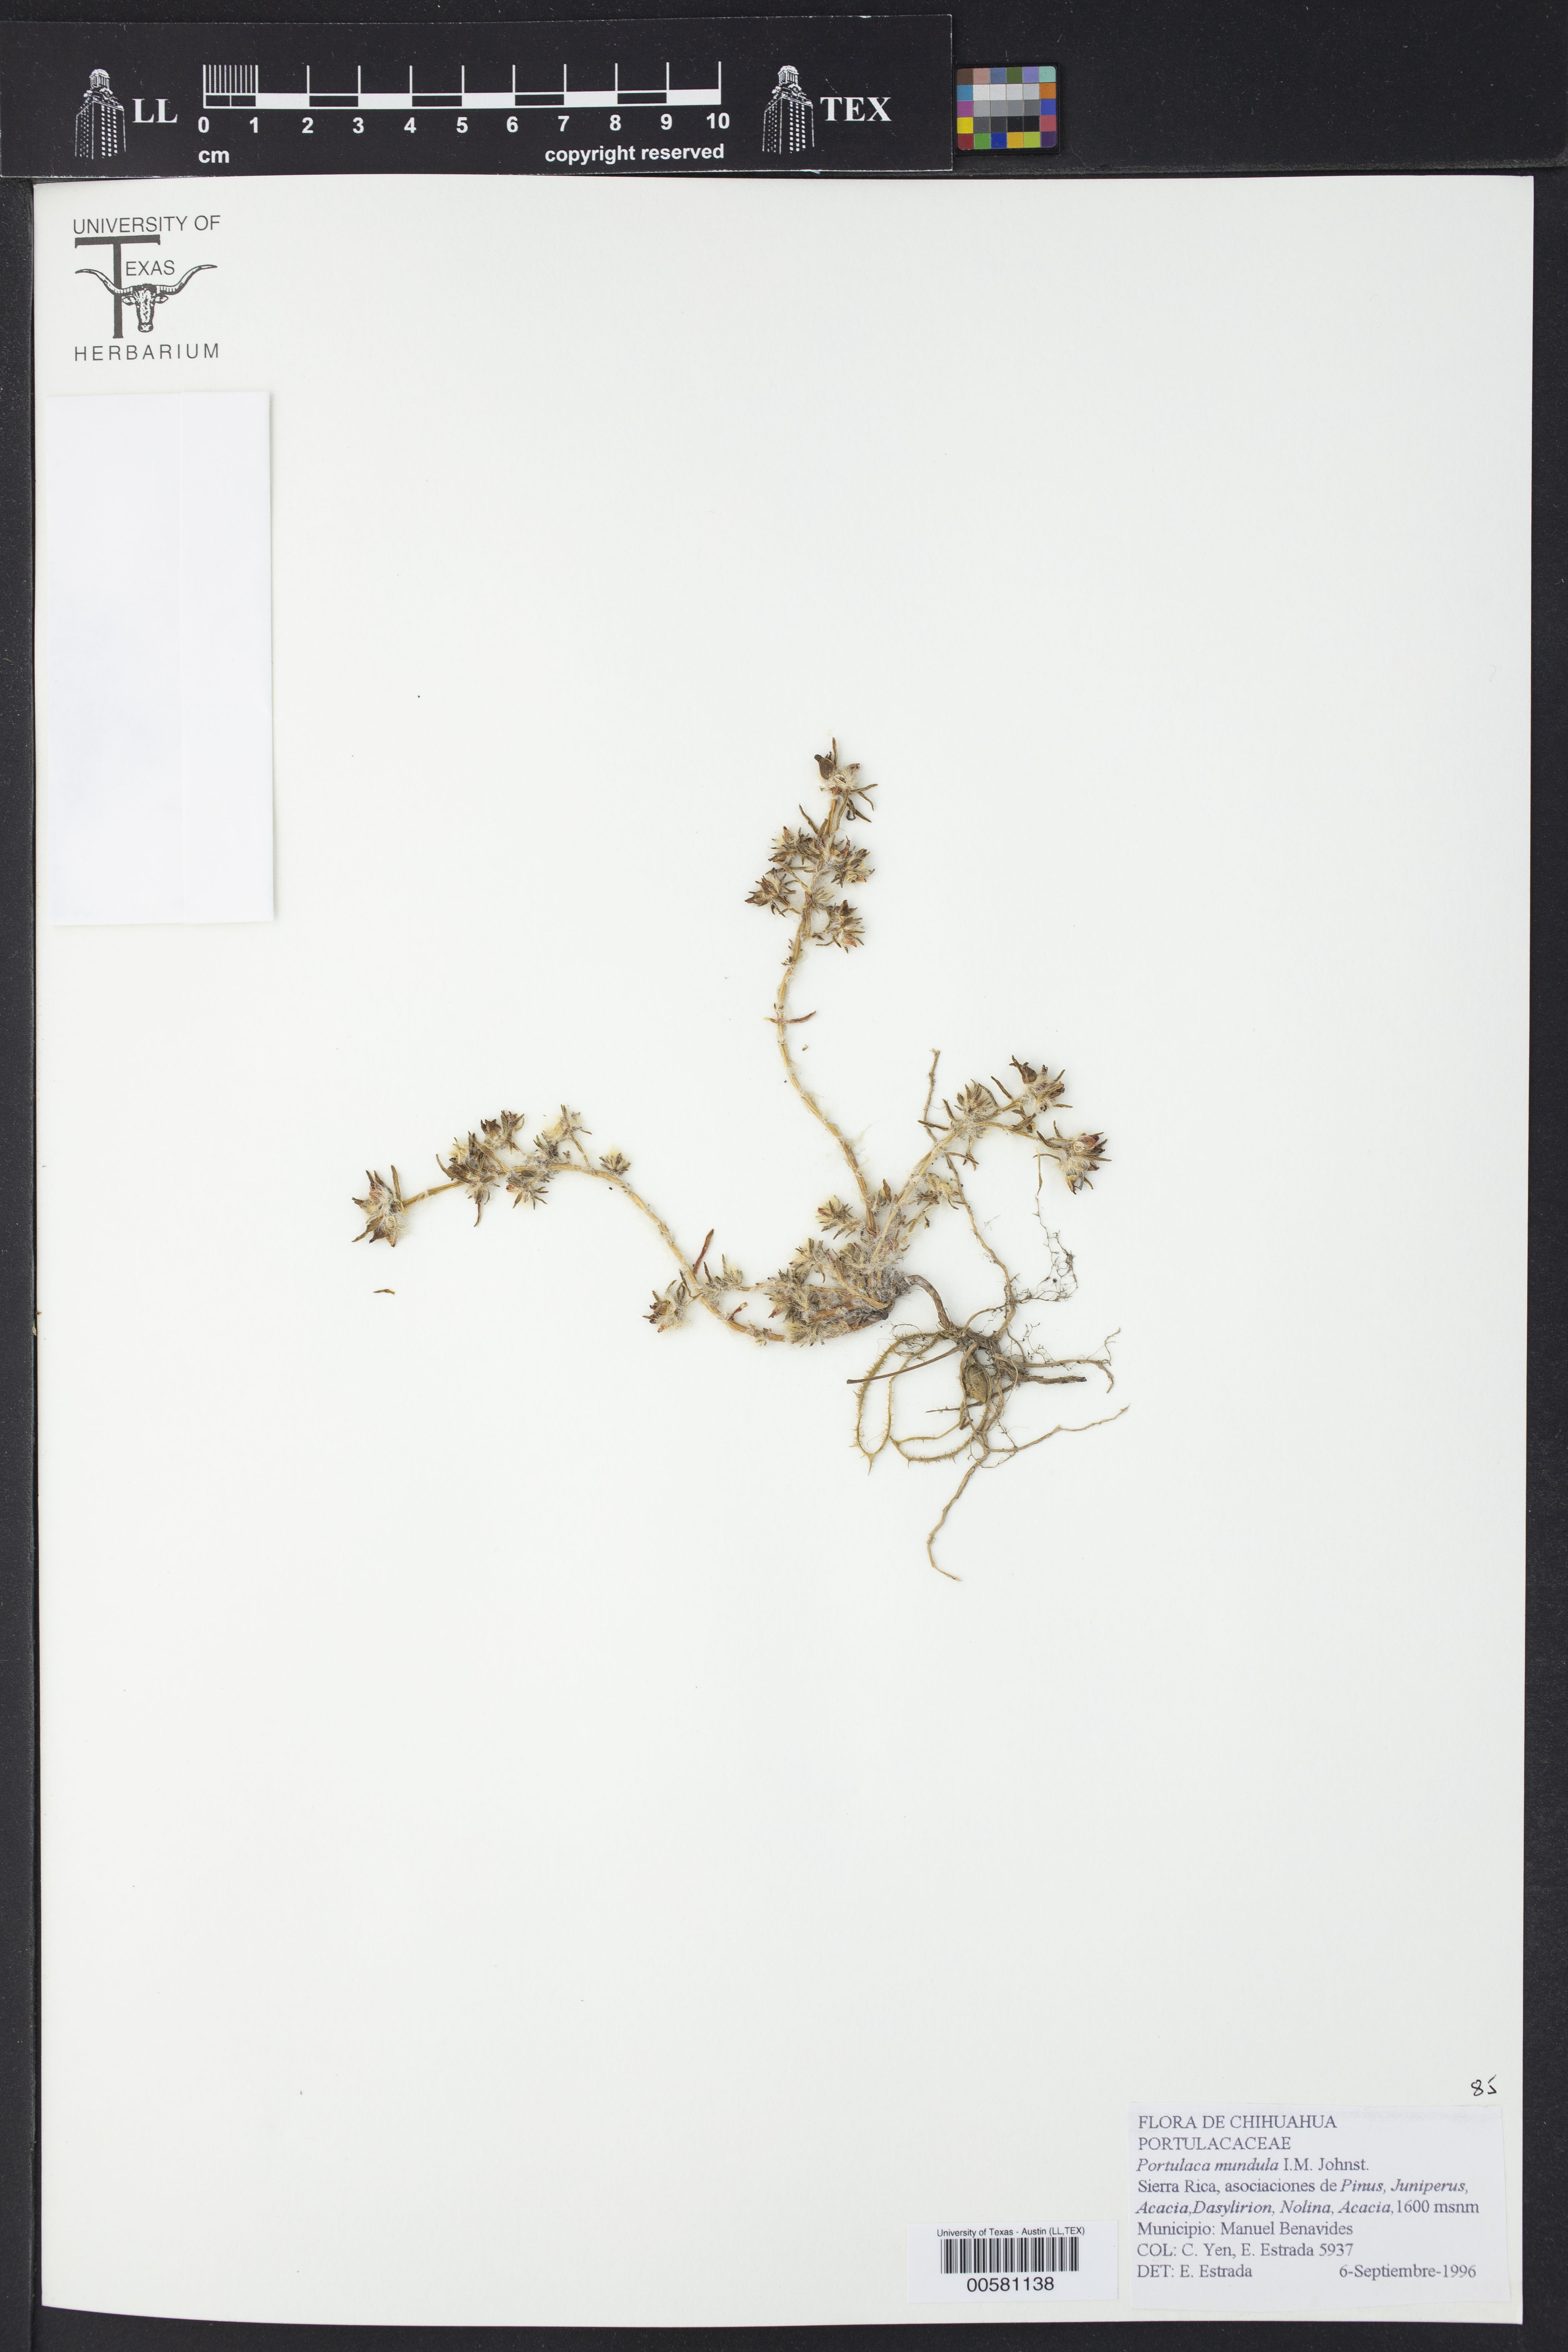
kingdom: Plantae
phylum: Tracheophyta
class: Magnoliopsida
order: Caryophyllales
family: Portulacaceae
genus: Portulaca
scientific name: Portulaca pilosa
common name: Kiss me quick
